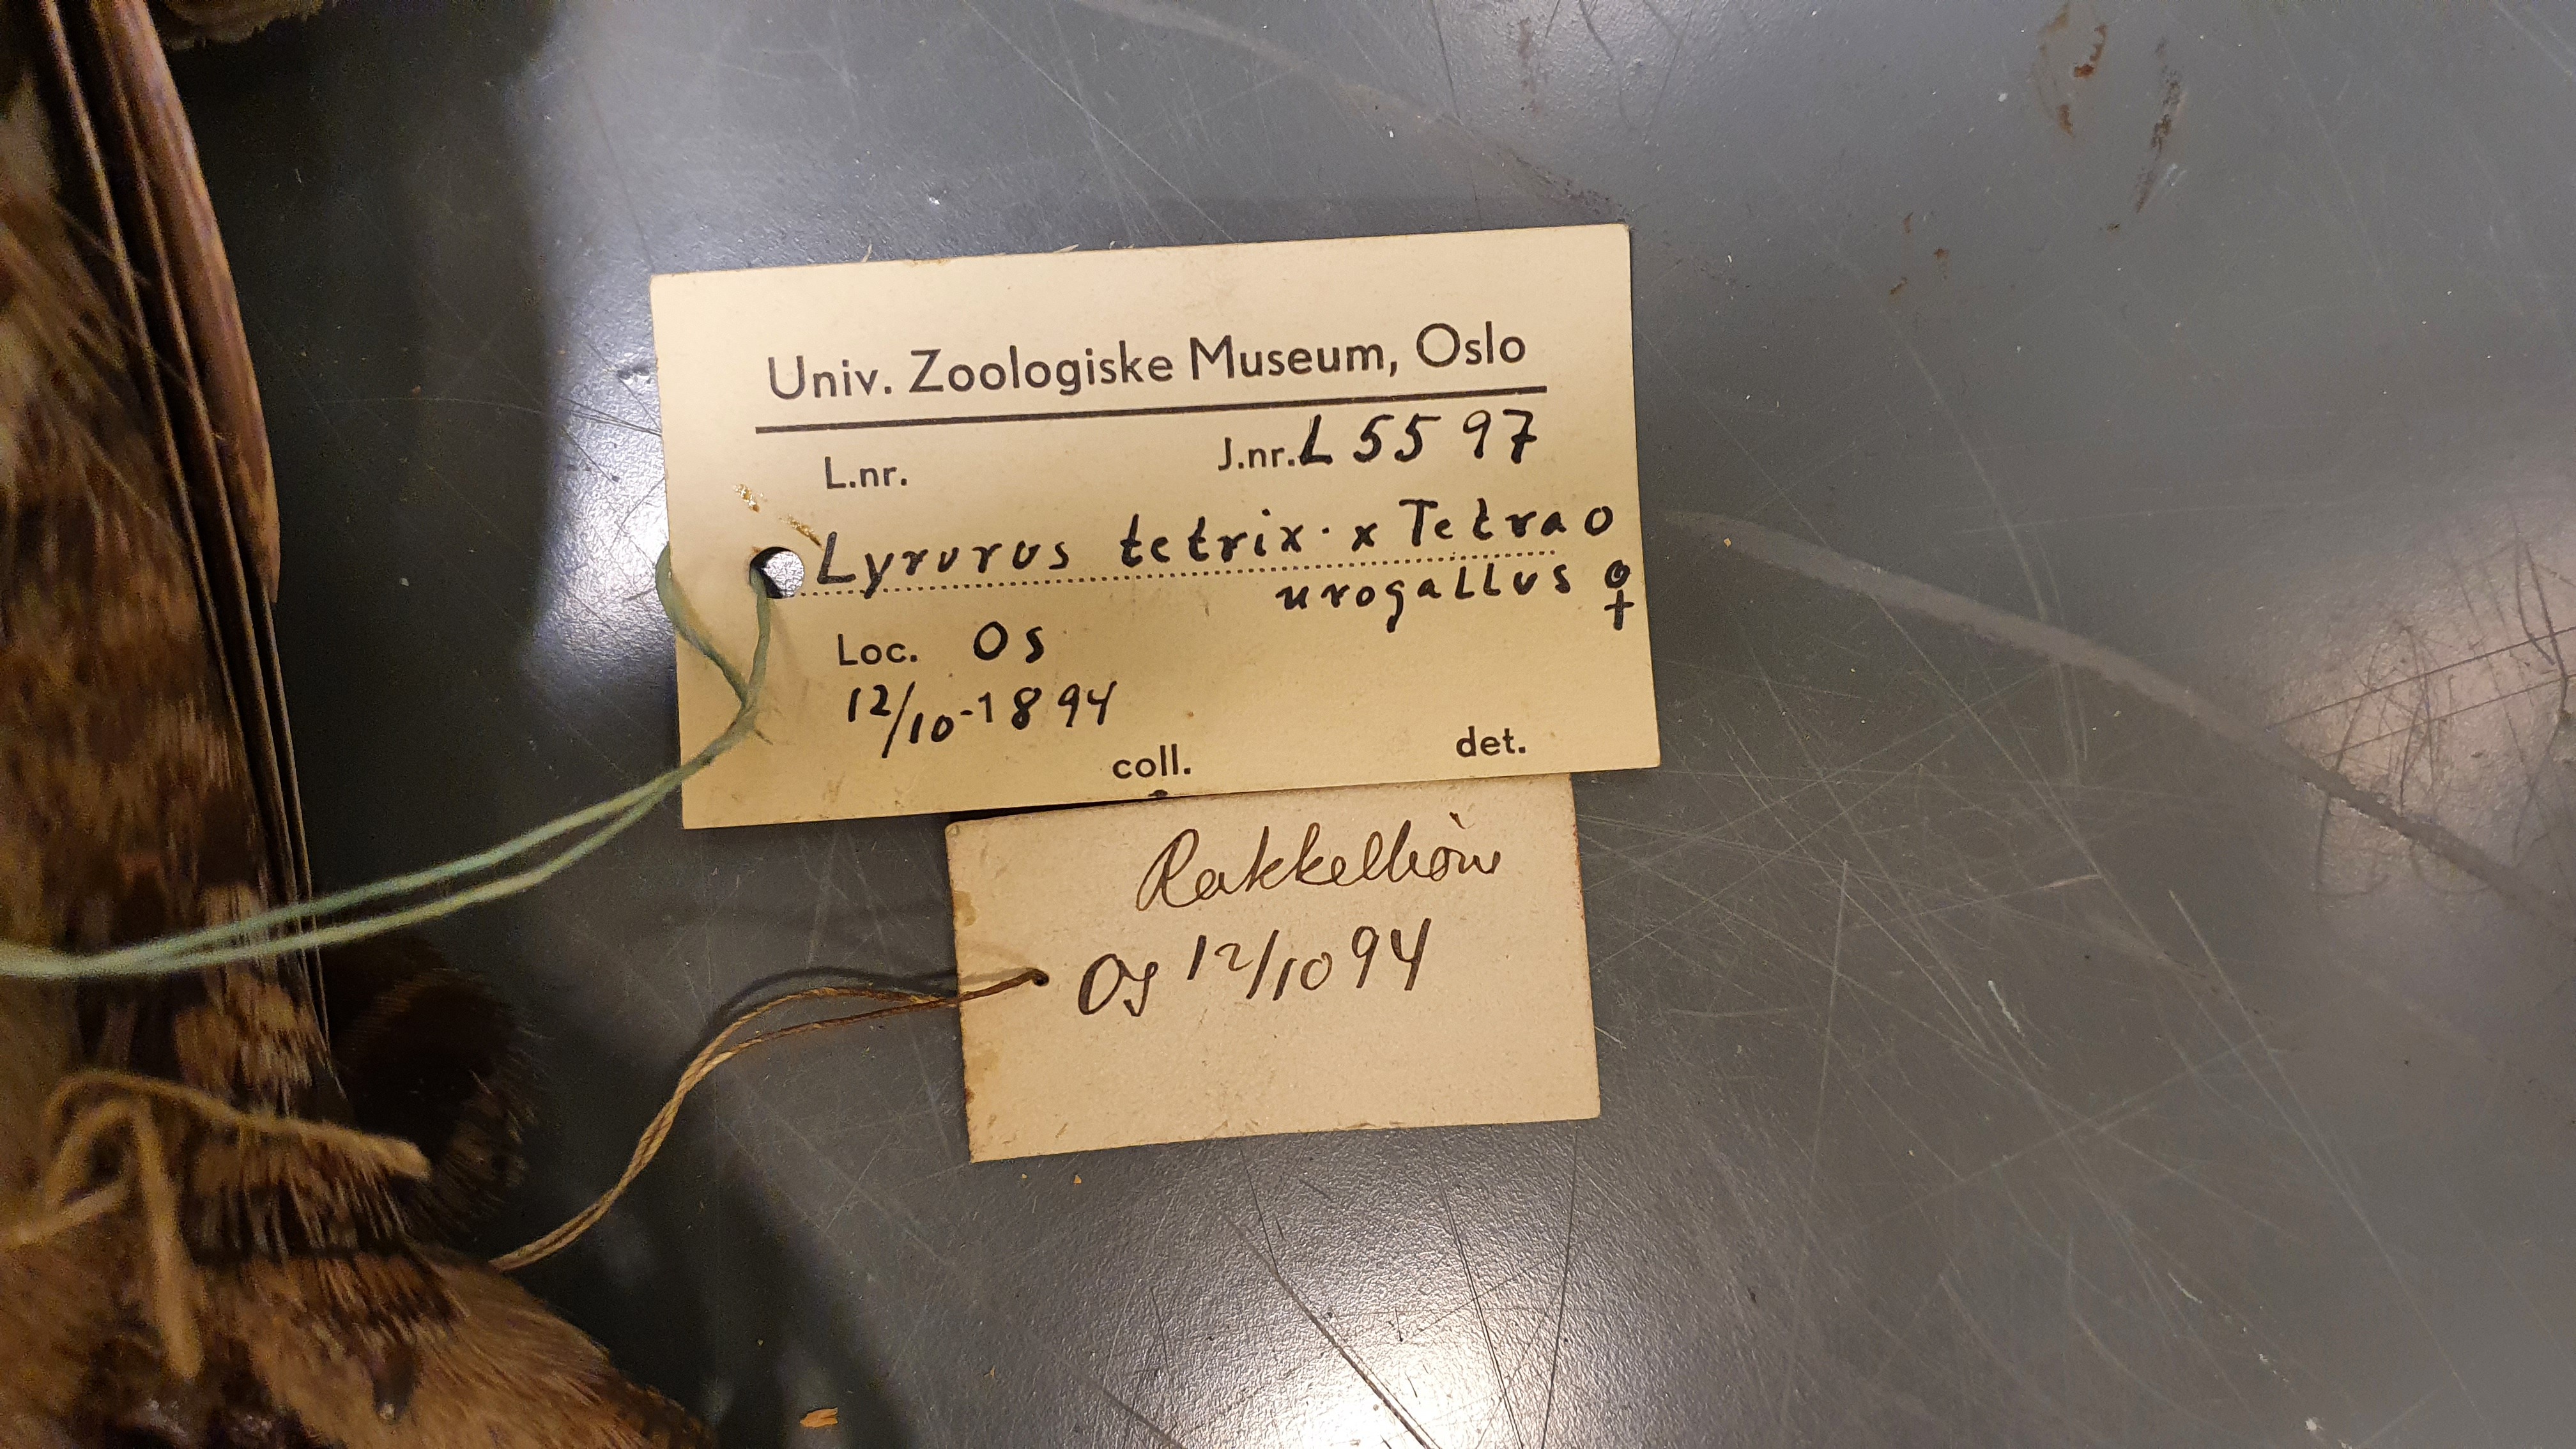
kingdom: Animalia
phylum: Chordata
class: Aves
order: Galliformes
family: Phasianidae
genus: Lyrurus
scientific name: Lyrurus
